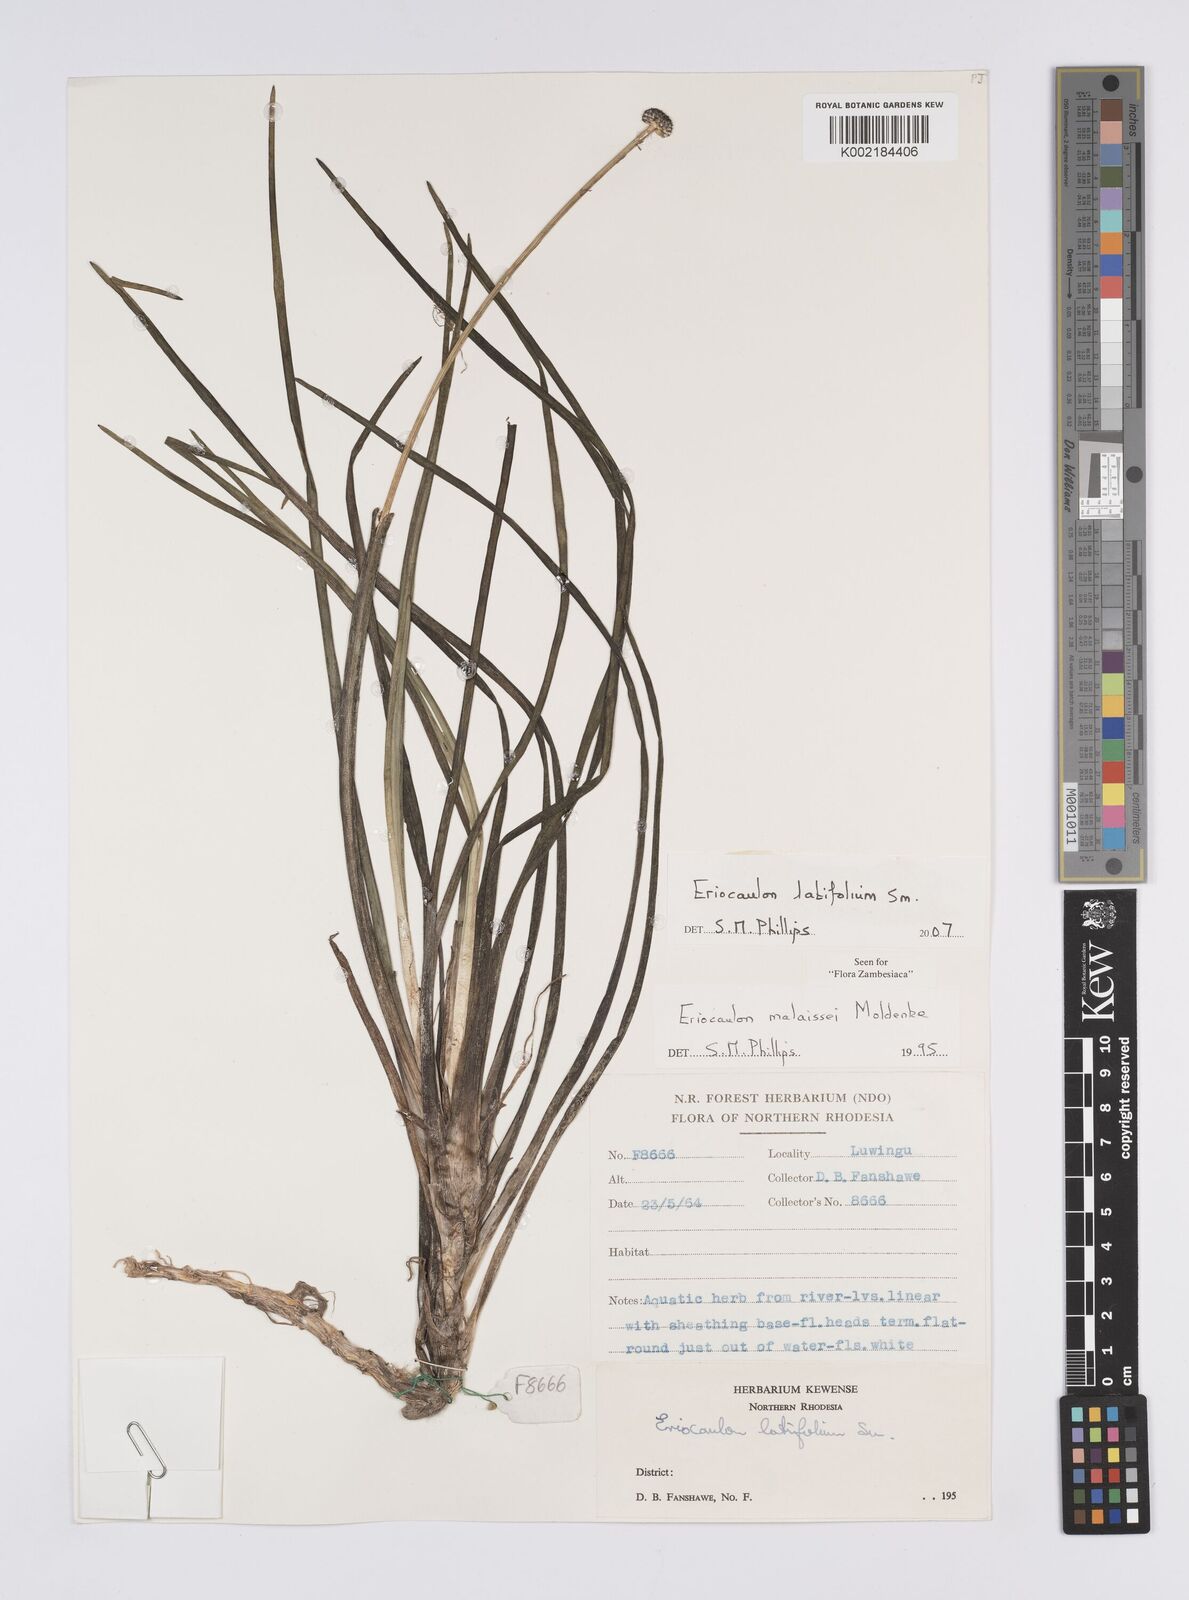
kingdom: Plantae
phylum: Tracheophyta
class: Liliopsida
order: Poales
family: Eriocaulaceae
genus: Eriocaulon
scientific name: Eriocaulon latifolium
